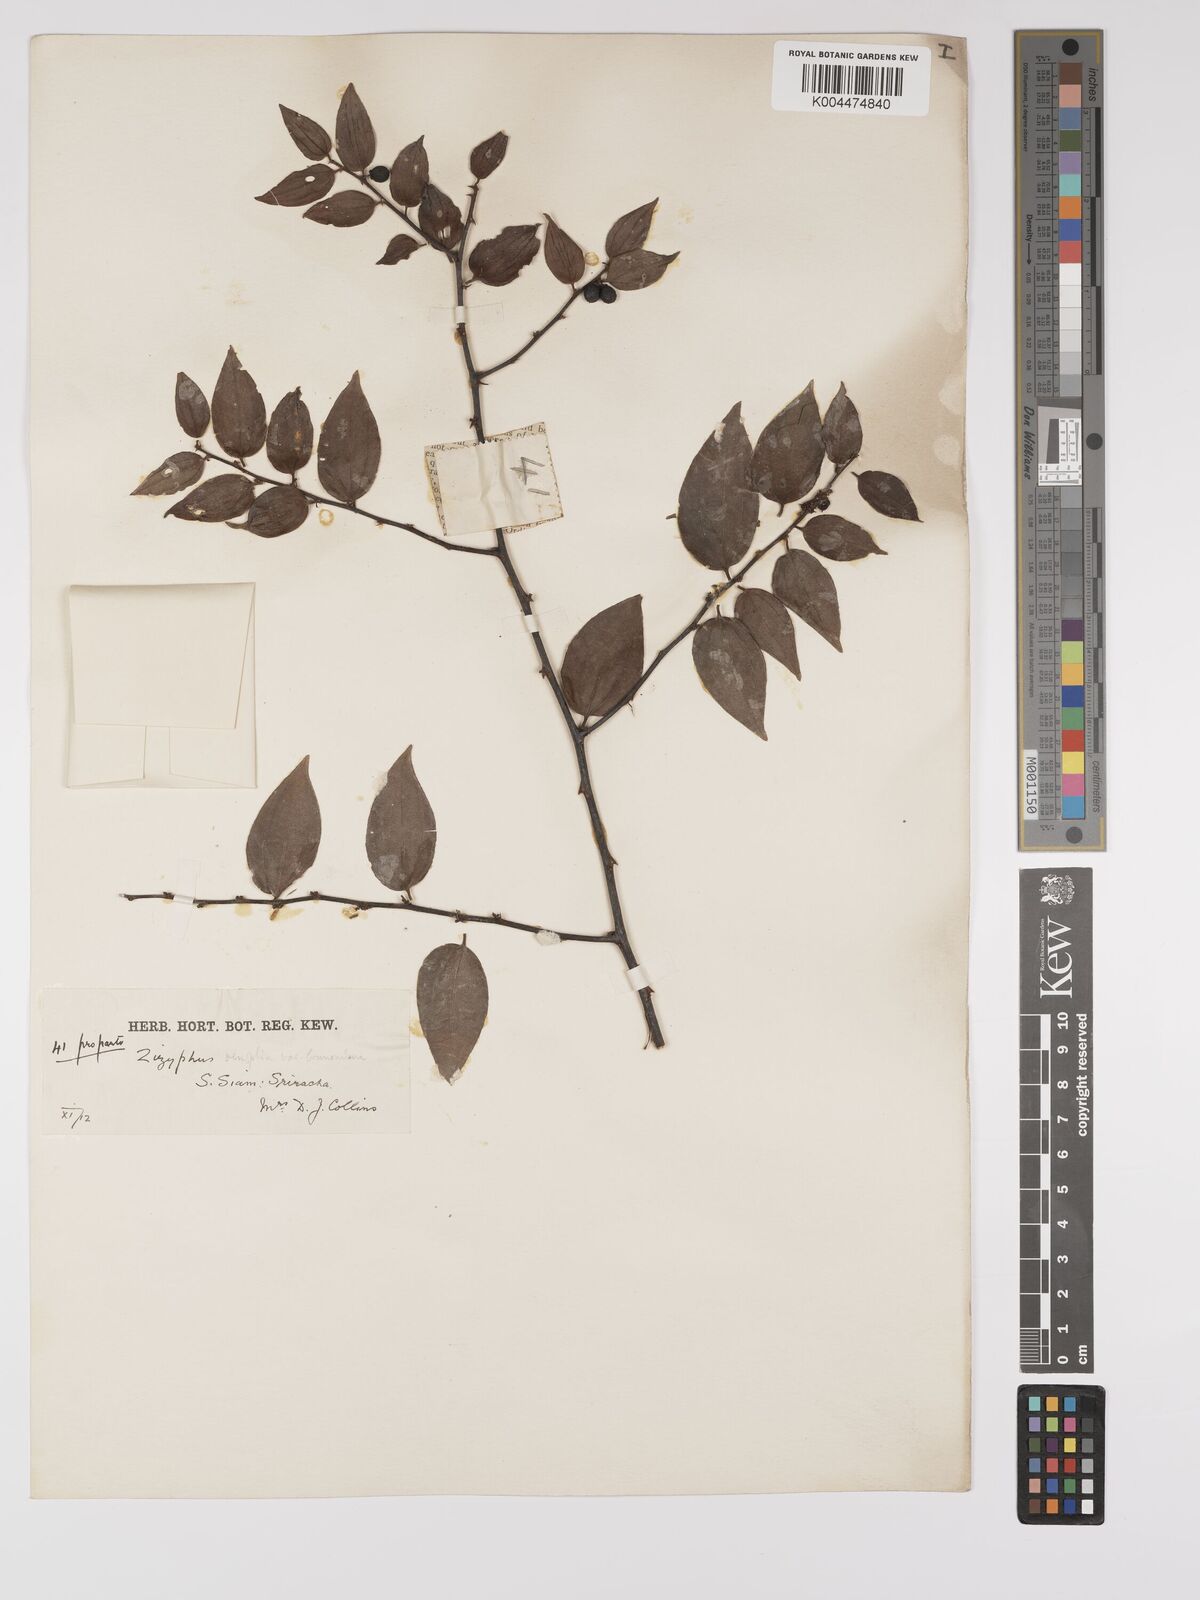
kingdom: Plantae
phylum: Tracheophyta
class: Magnoliopsida
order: Rosales
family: Rhamnaceae
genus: Ziziphus
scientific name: Ziziphus oenopolia
